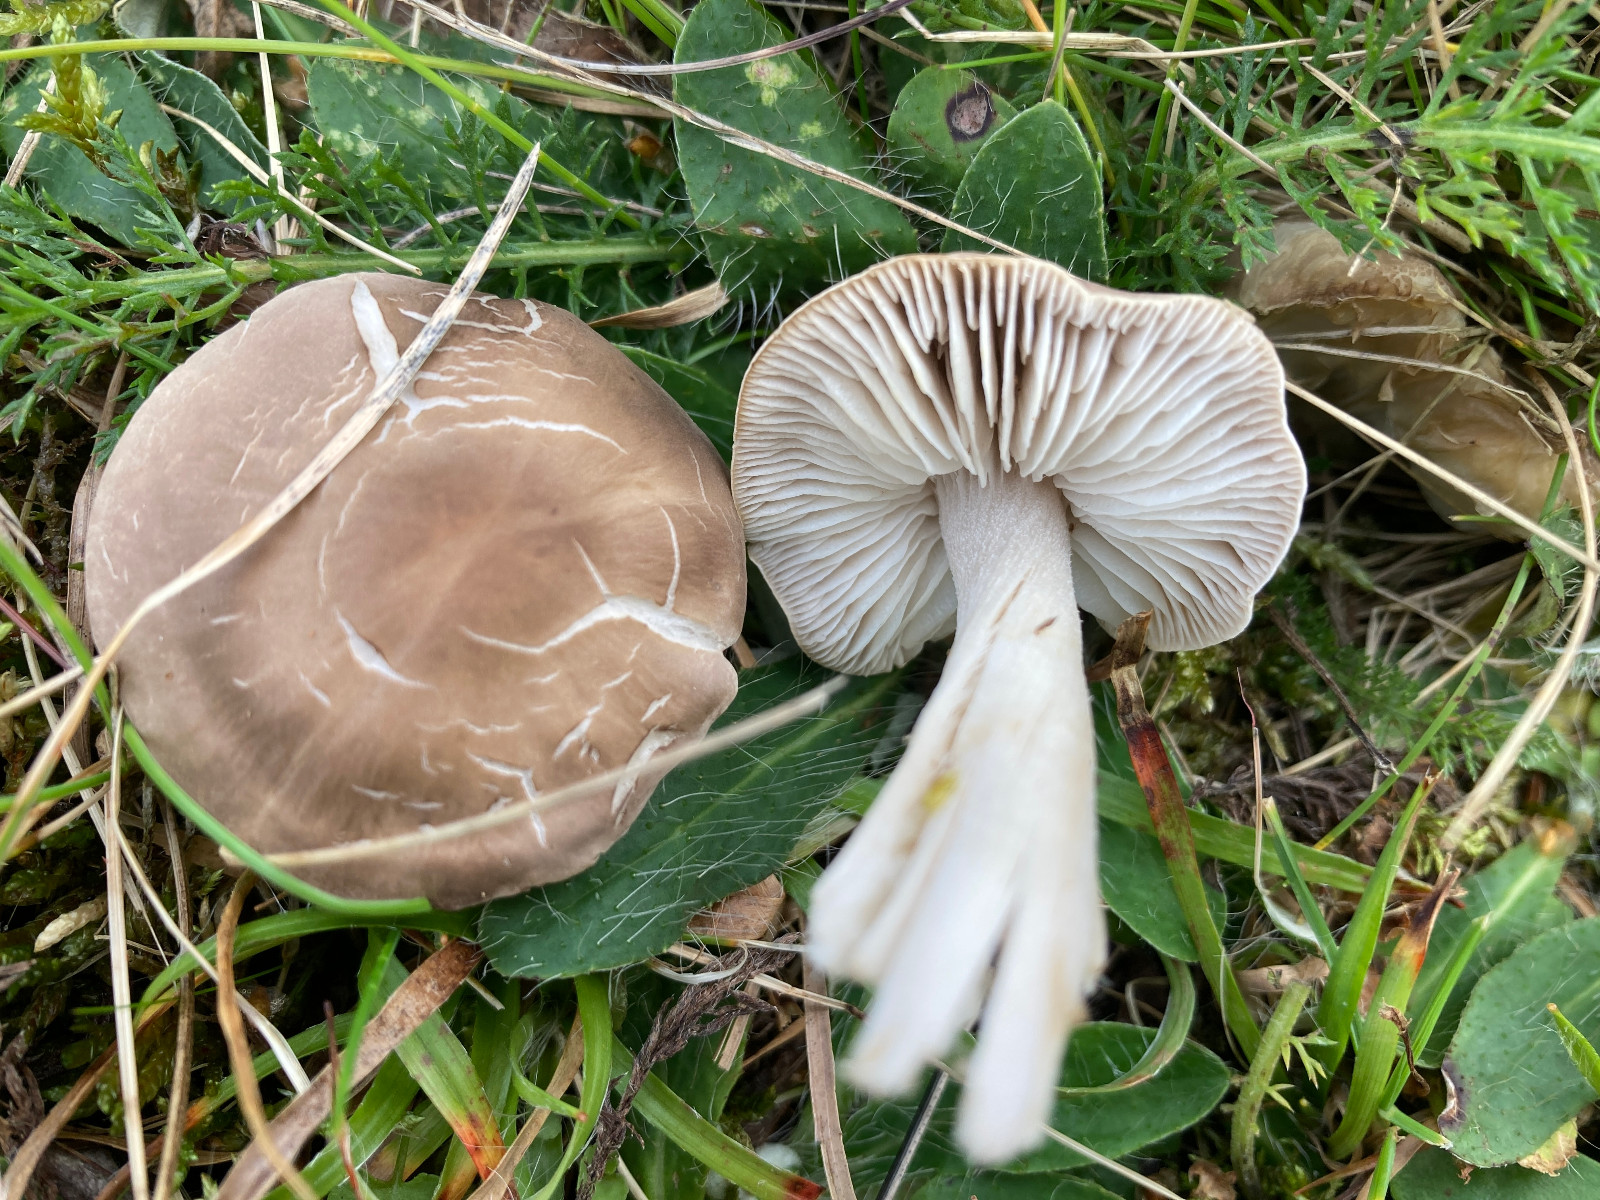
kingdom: Fungi
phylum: Basidiomycota
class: Agaricomycetes
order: Agaricales
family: Tricholomataceae
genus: Dermoloma
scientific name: Dermoloma cuneifolium
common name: eng-nonnehat
